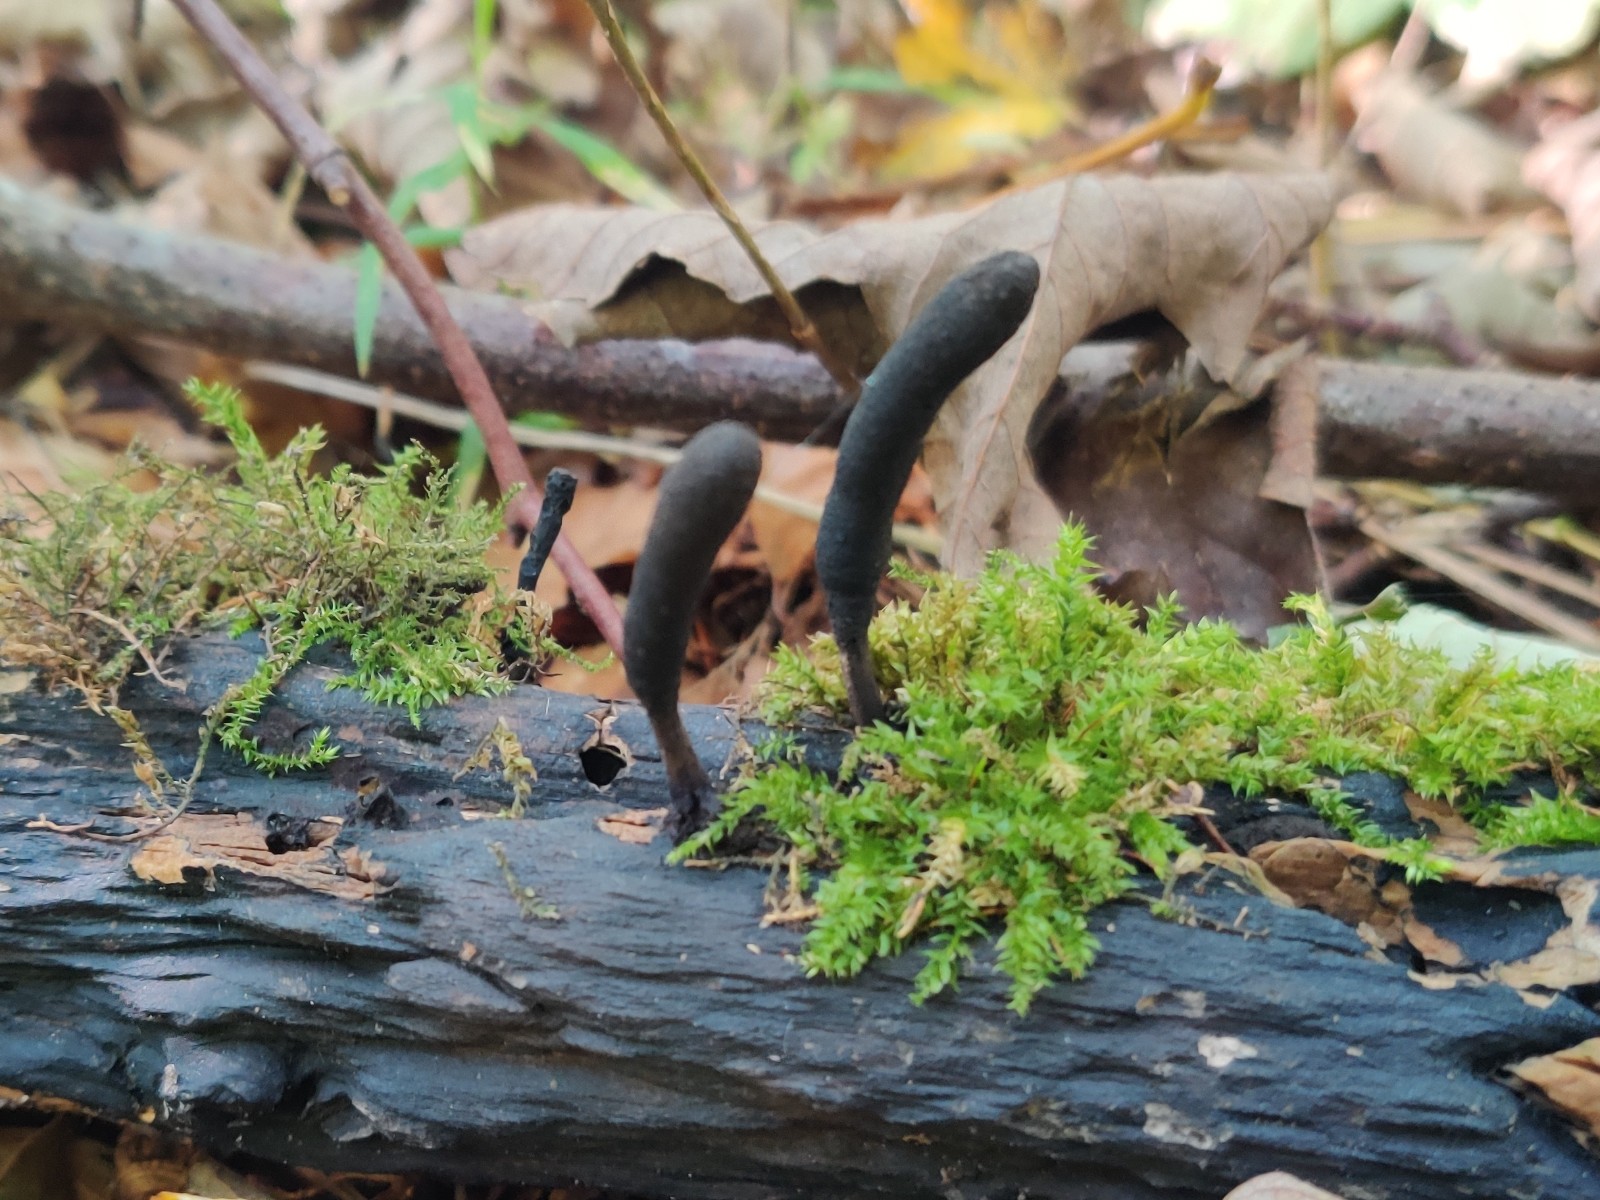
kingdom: Fungi
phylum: Ascomycota
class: Sordariomycetes
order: Xylariales
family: Xylariaceae
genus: Xylaria
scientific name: Xylaria longipes
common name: slank stødsvamp
